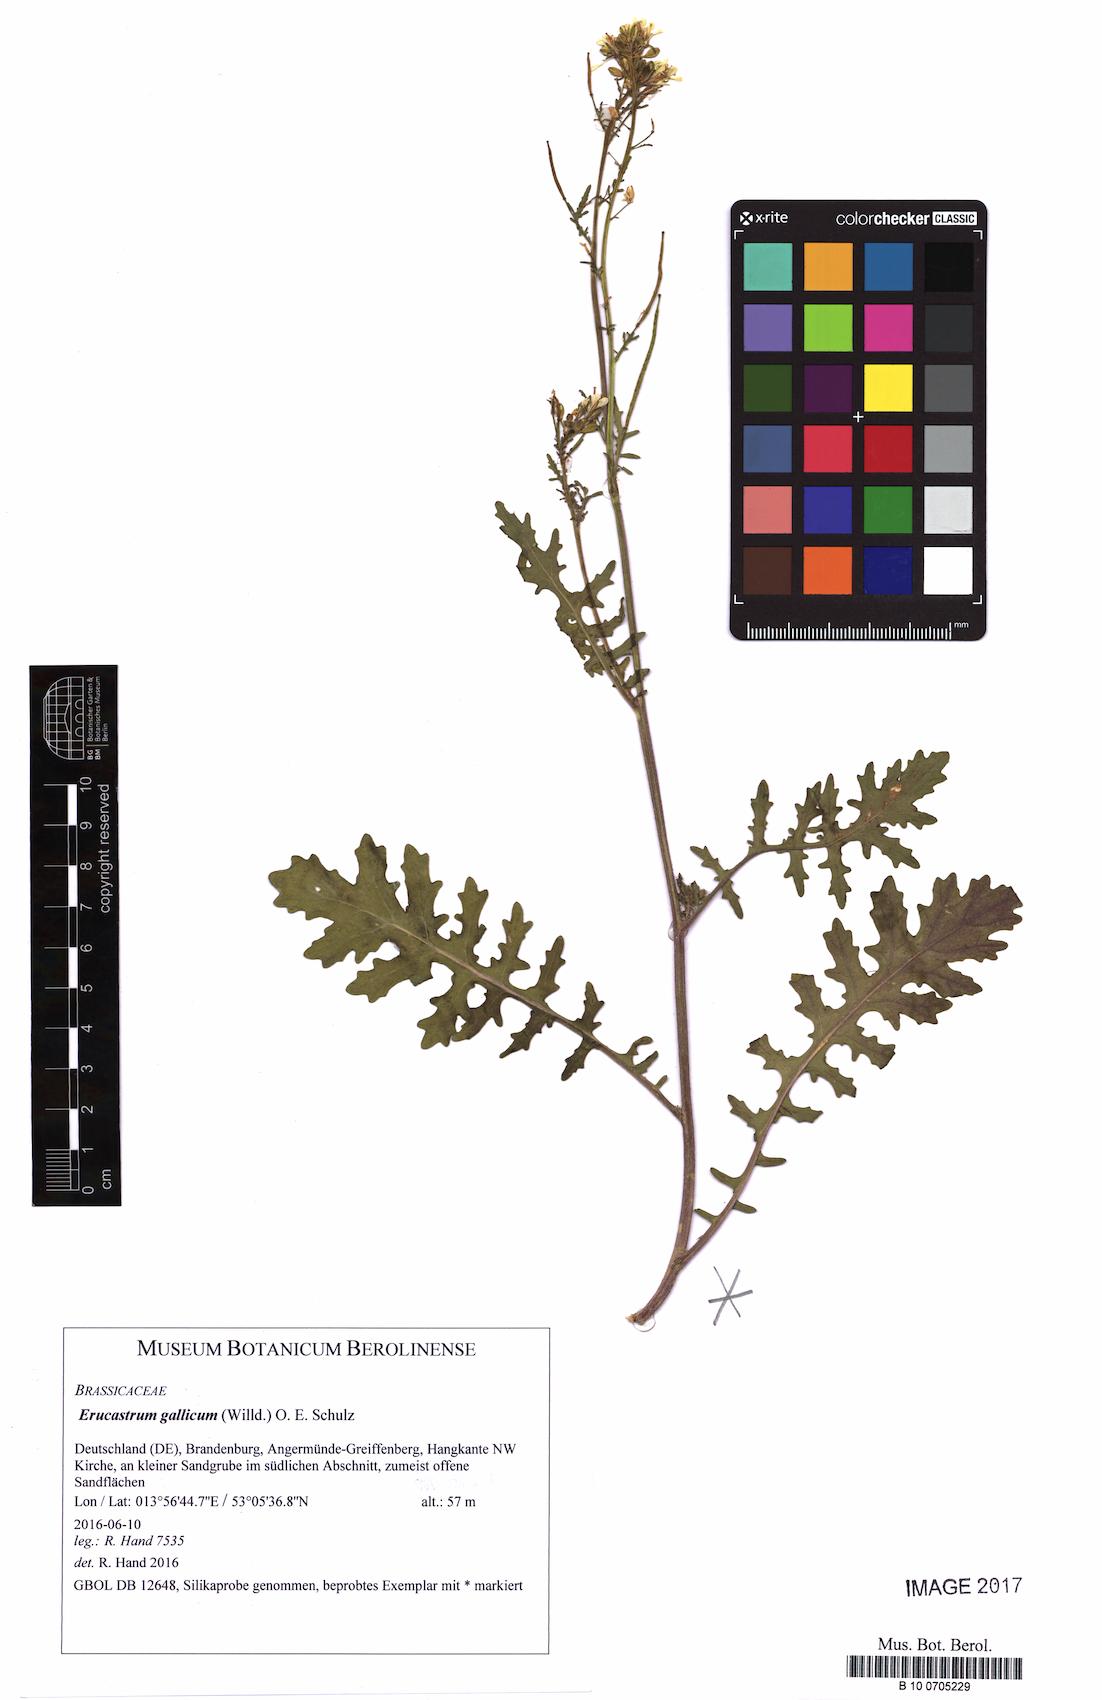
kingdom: Plantae
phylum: Tracheophyta
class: Magnoliopsida
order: Brassicales
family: Brassicaceae
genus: Erucastrum
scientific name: Erucastrum gallicum
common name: Hairy rocket
